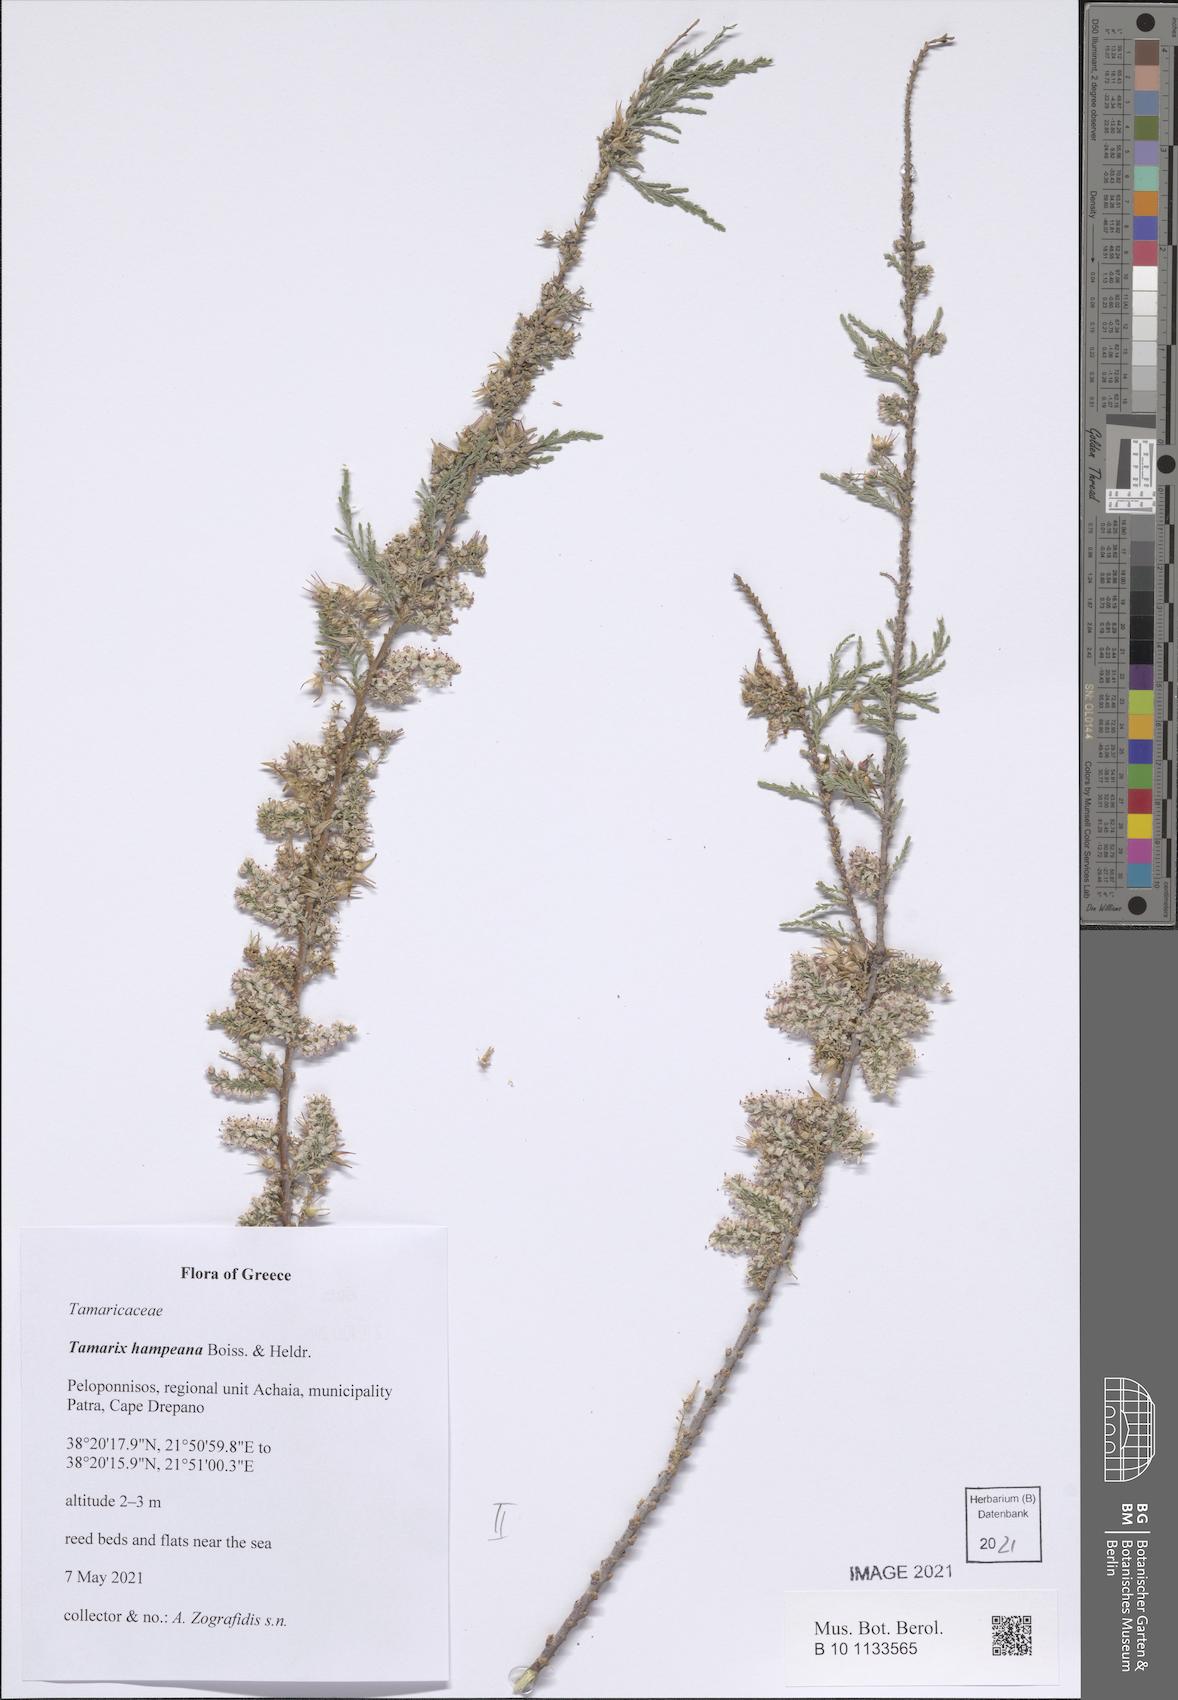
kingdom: Plantae
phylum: Tracheophyta
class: Magnoliopsida
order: Caryophyllales
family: Tamaricaceae
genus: Tamarix
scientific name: Tamarix hampeana
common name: Hampe’s tamarisk
